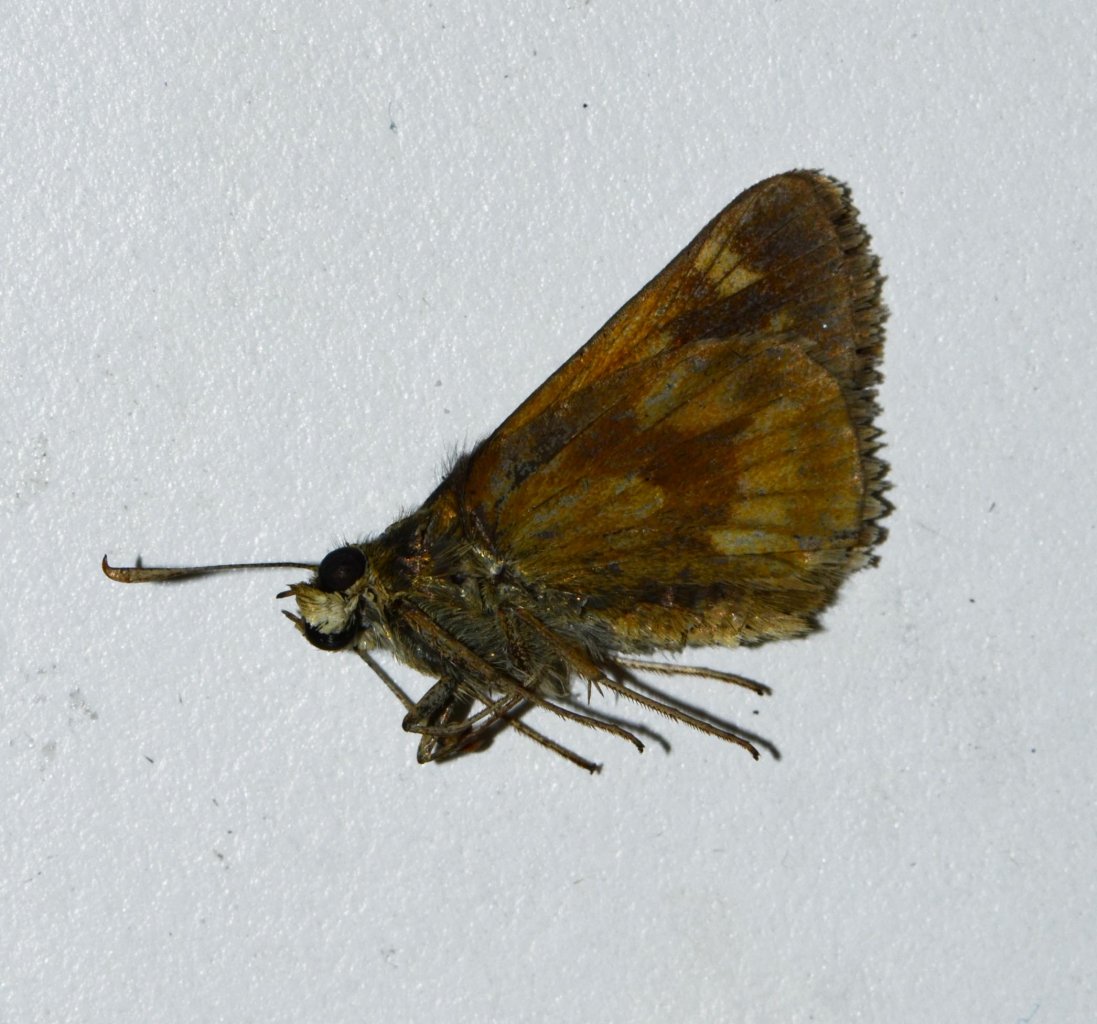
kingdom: Animalia
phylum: Arthropoda
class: Insecta
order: Lepidoptera
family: Hesperiidae
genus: Polites
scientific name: Polites
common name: Long Dash Skipper
